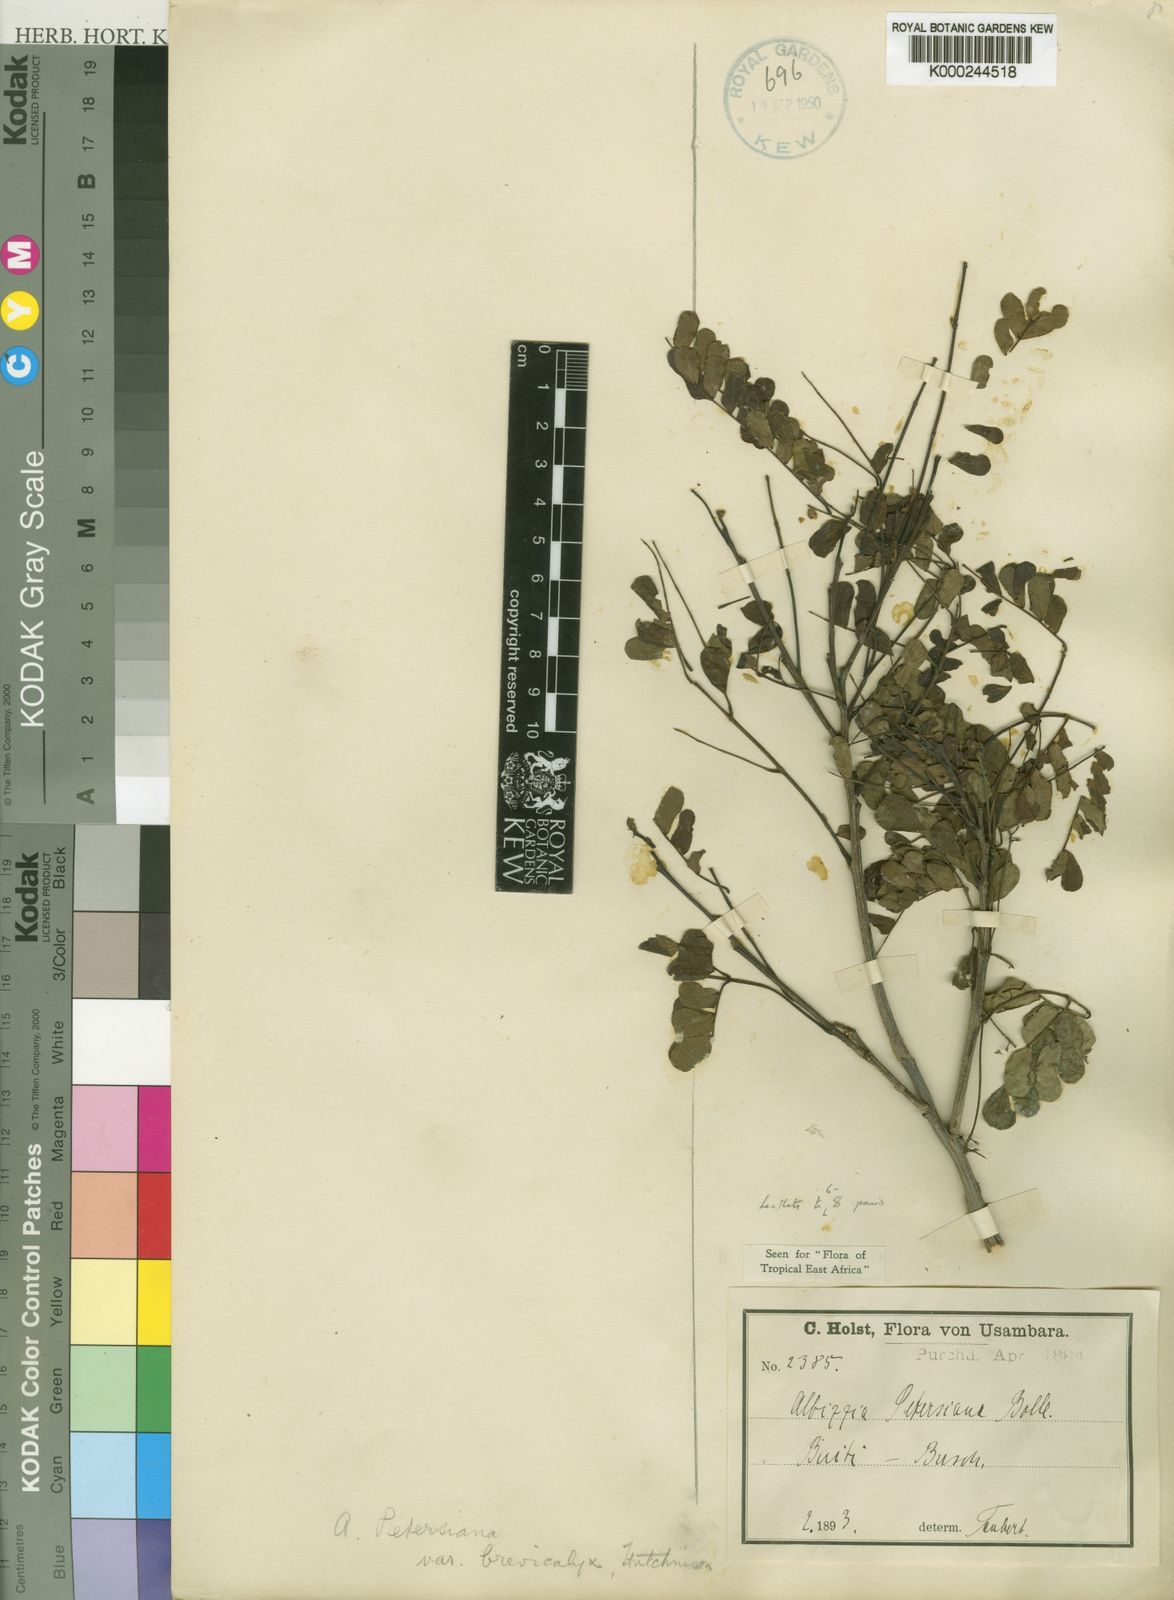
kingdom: Plantae
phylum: Tracheophyta
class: Magnoliopsida
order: Fabales
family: Fabaceae
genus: Albizia
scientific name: Albizia petersiana
